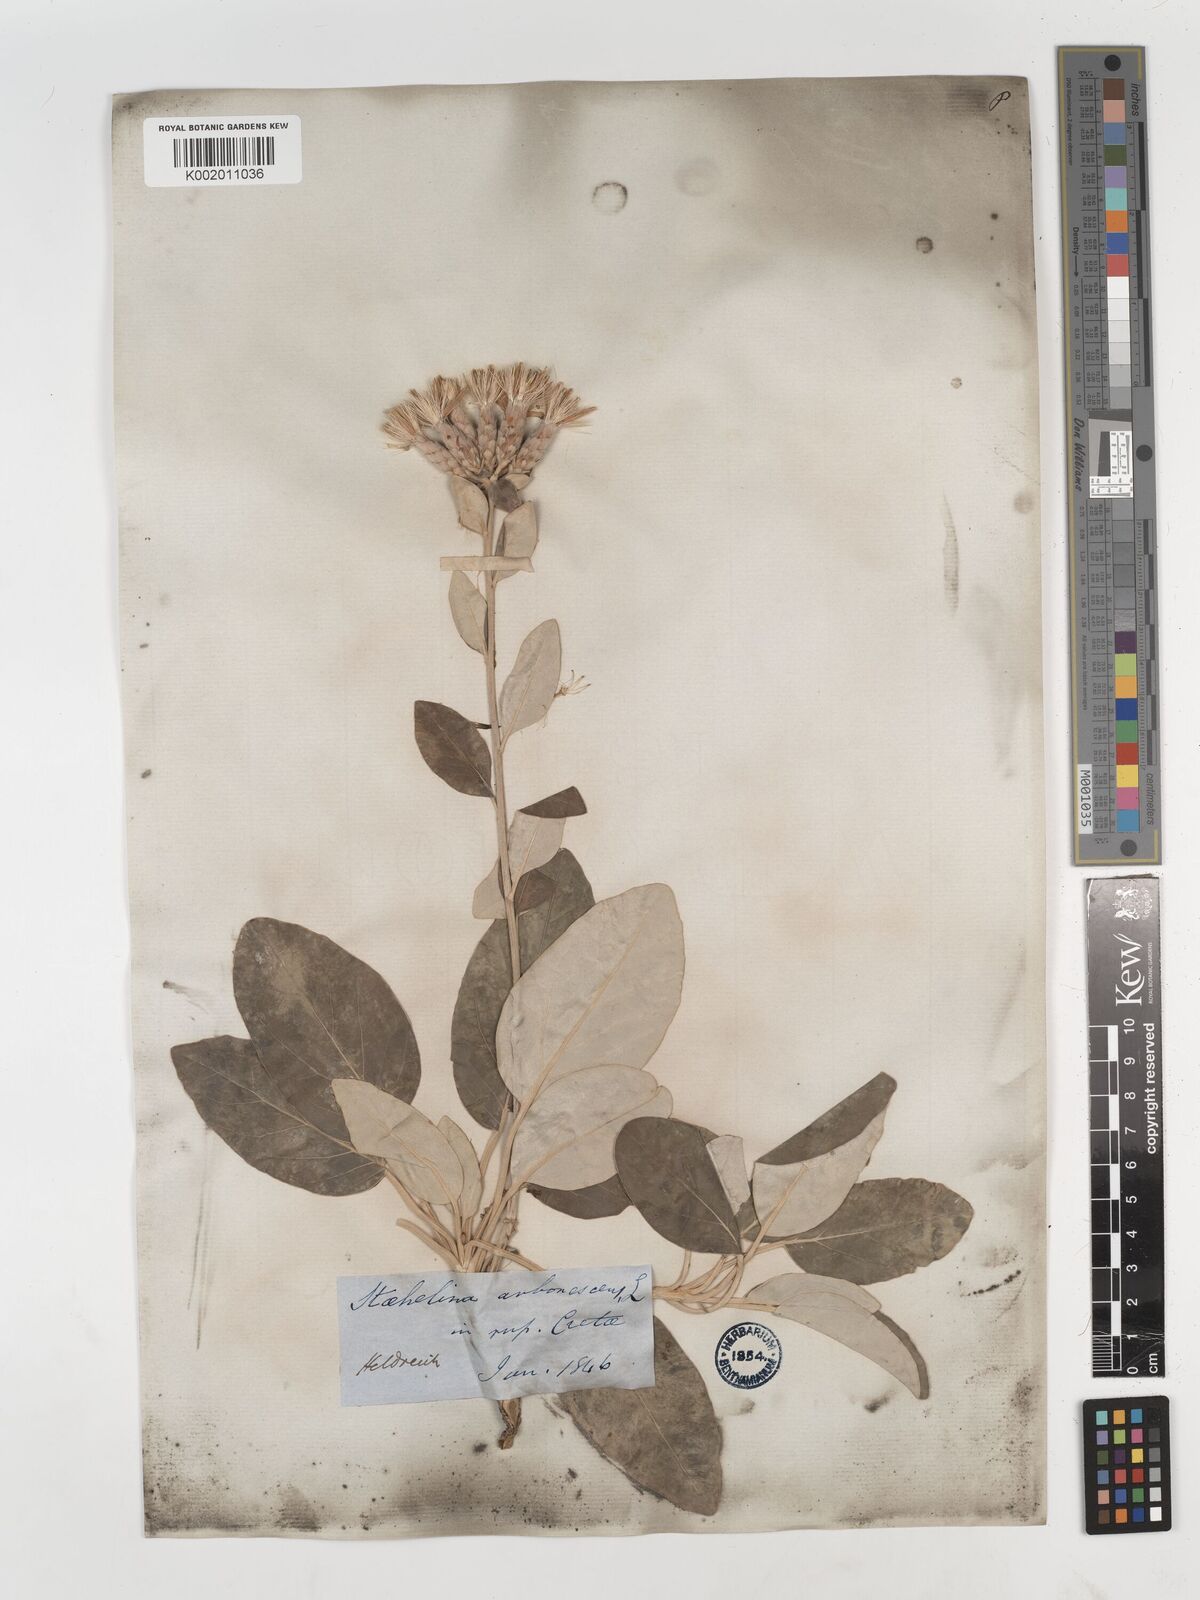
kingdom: Plantae
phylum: Tracheophyta
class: Magnoliopsida
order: Asterales
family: Asteraceae
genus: Staehelina
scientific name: Staehelina petiolata
